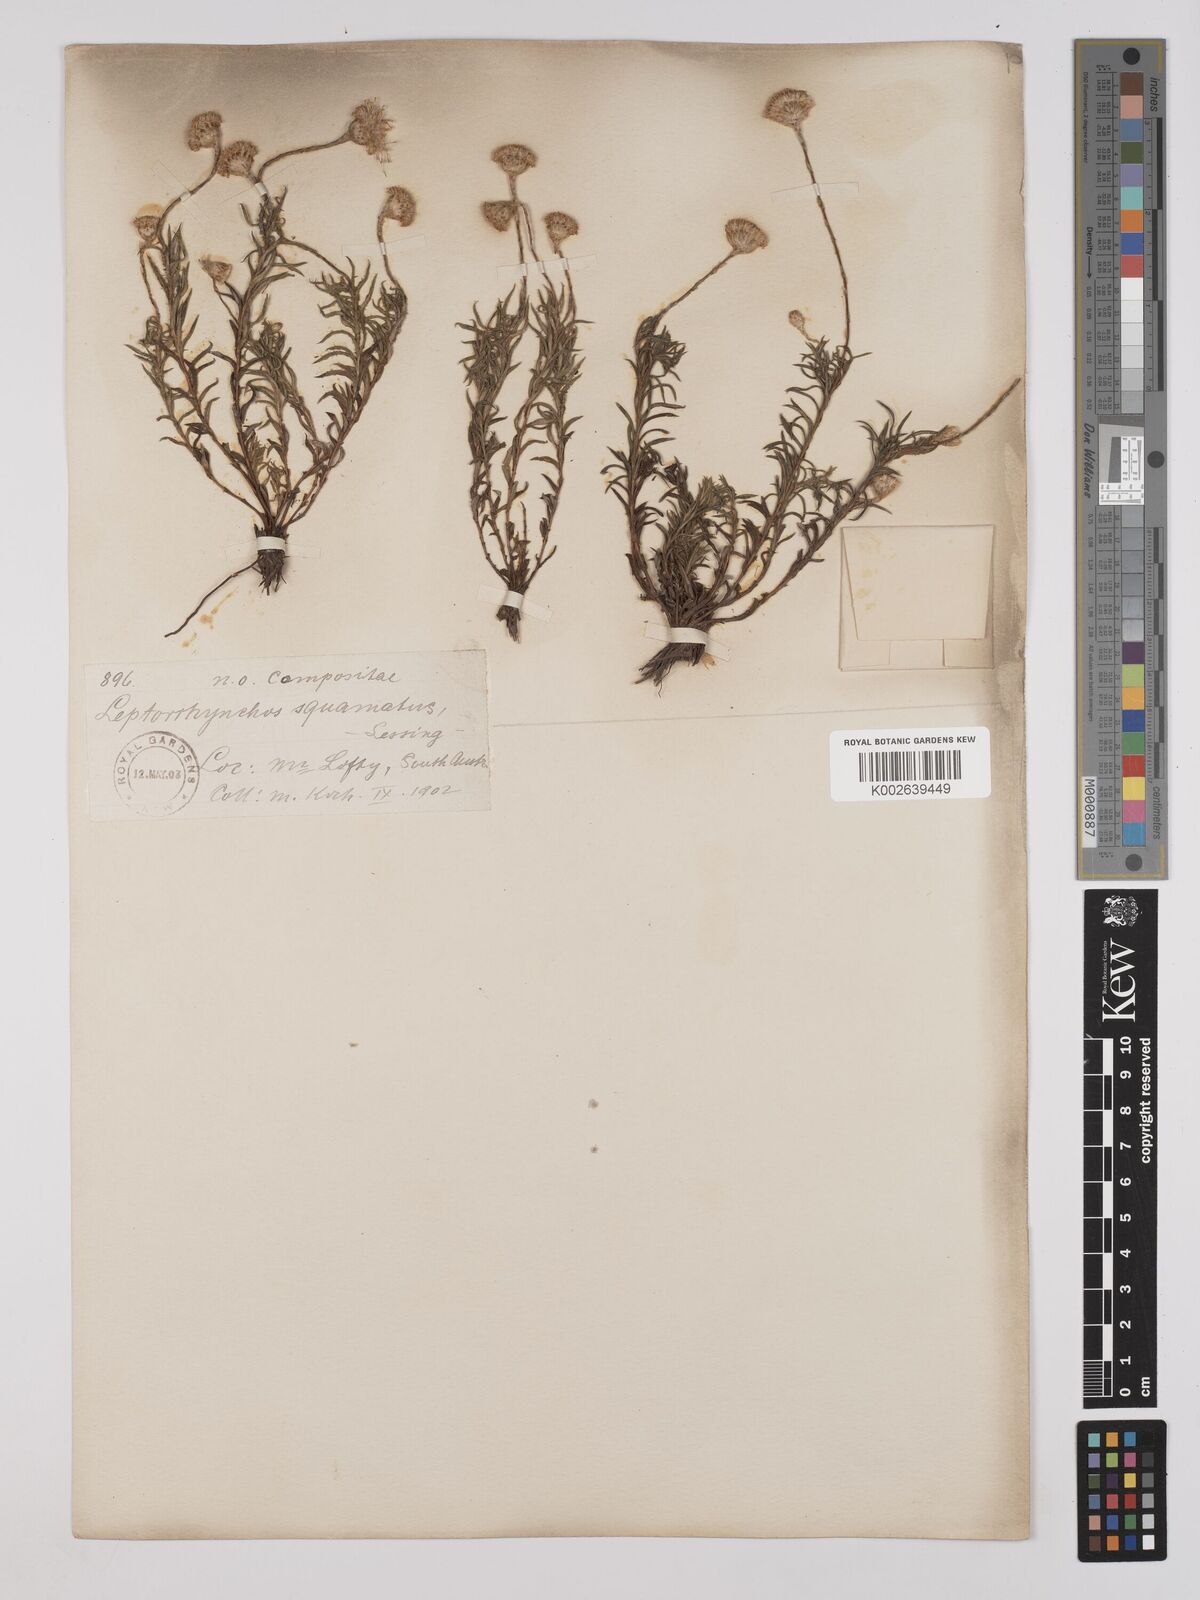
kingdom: Plantae
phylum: Tracheophyta
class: Magnoliopsida
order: Asterales
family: Asteraceae
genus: Leptorhynchos
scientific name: Leptorhynchos squamatus
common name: Scaly-buttons
